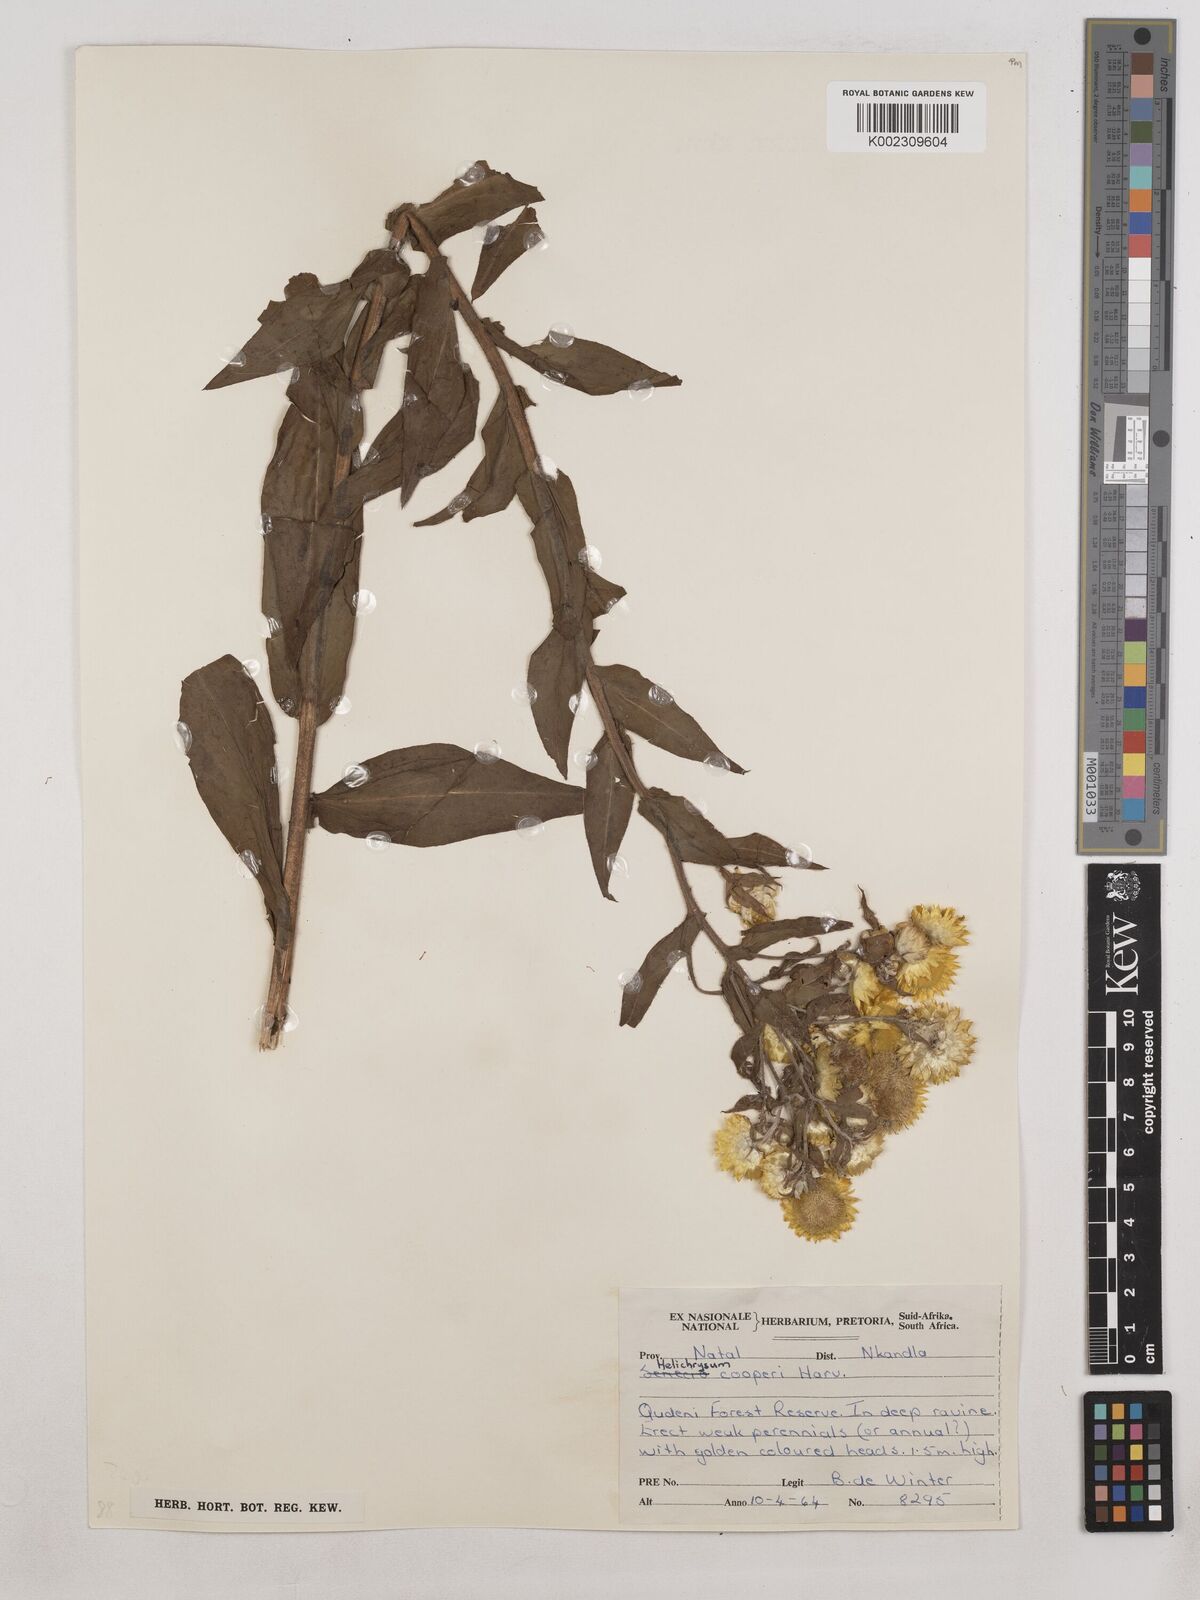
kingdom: Plantae
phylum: Tracheophyta
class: Magnoliopsida
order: Asterales
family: Asteraceae
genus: Helichrysum
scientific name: Helichrysum cooperi
